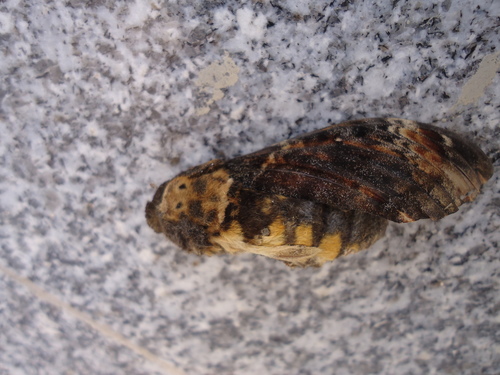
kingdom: Animalia
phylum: Arthropoda
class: Insecta
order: Lepidoptera
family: Sphingidae
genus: Acherontia
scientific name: Acherontia atropos
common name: Death's-head hawk moth
